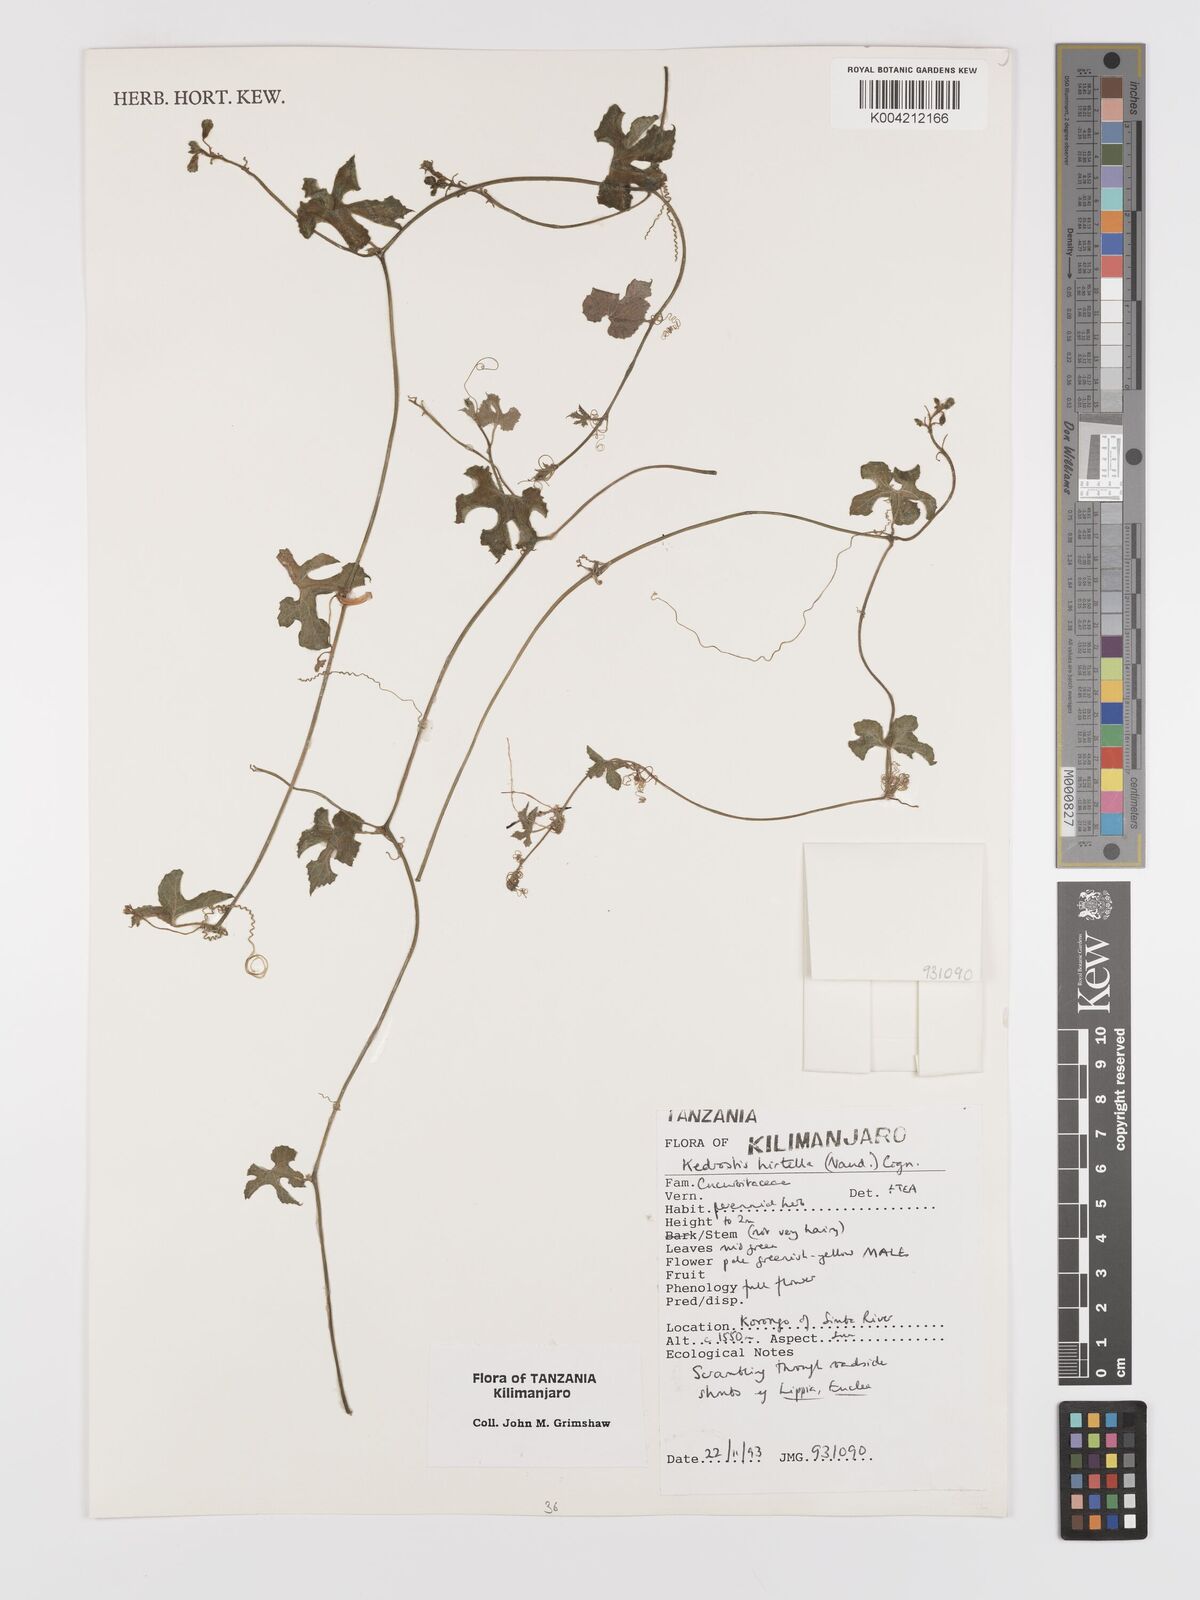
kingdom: Plantae
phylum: Tracheophyta
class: Magnoliopsida
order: Cucurbitales
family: Cucurbitaceae
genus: Kedrostis
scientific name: Kedrostis leloja
